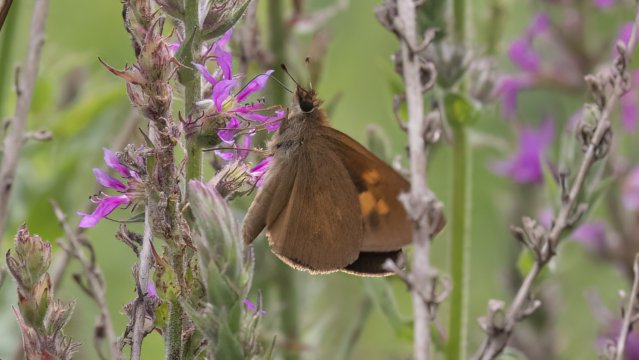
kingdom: Animalia
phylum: Arthropoda
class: Insecta
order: Lepidoptera
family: Hesperiidae
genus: Poanes
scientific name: Poanes viator
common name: Broad-winged Skipper
